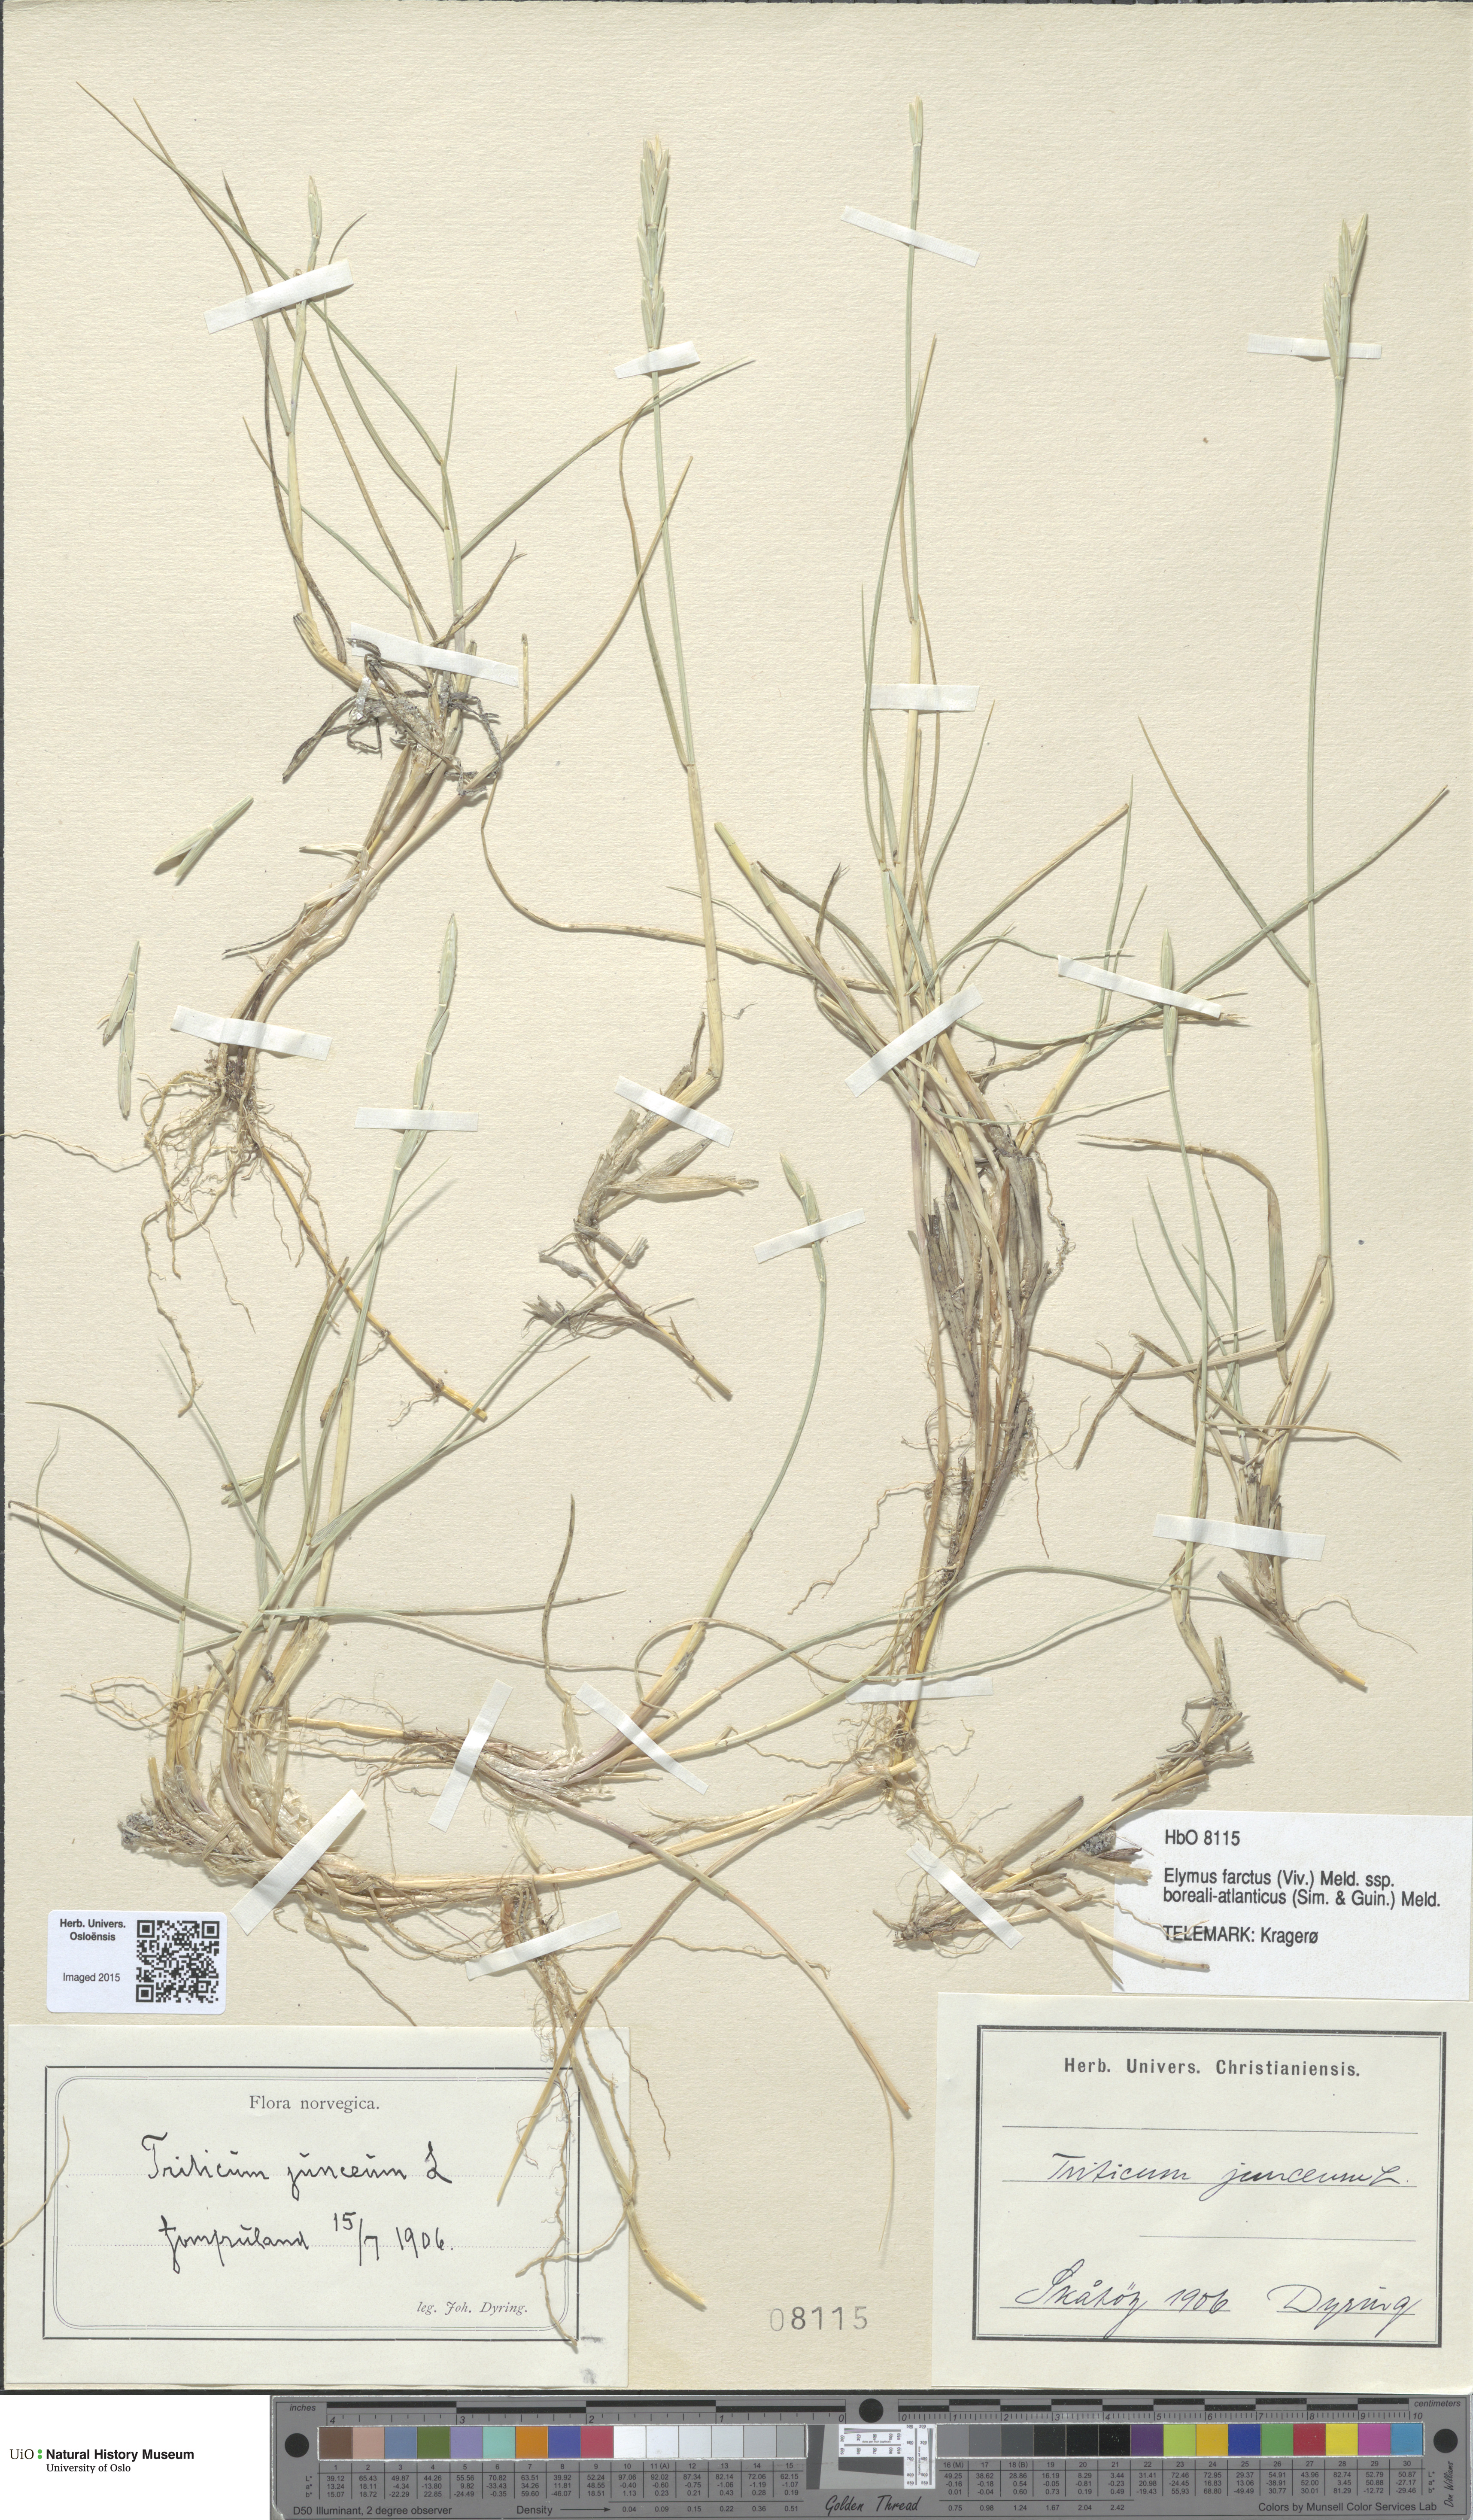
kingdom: Plantae
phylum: Tracheophyta
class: Liliopsida
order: Poales
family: Poaceae
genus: Thinopyrum
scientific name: Thinopyrum junceiforme
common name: Sea couch
